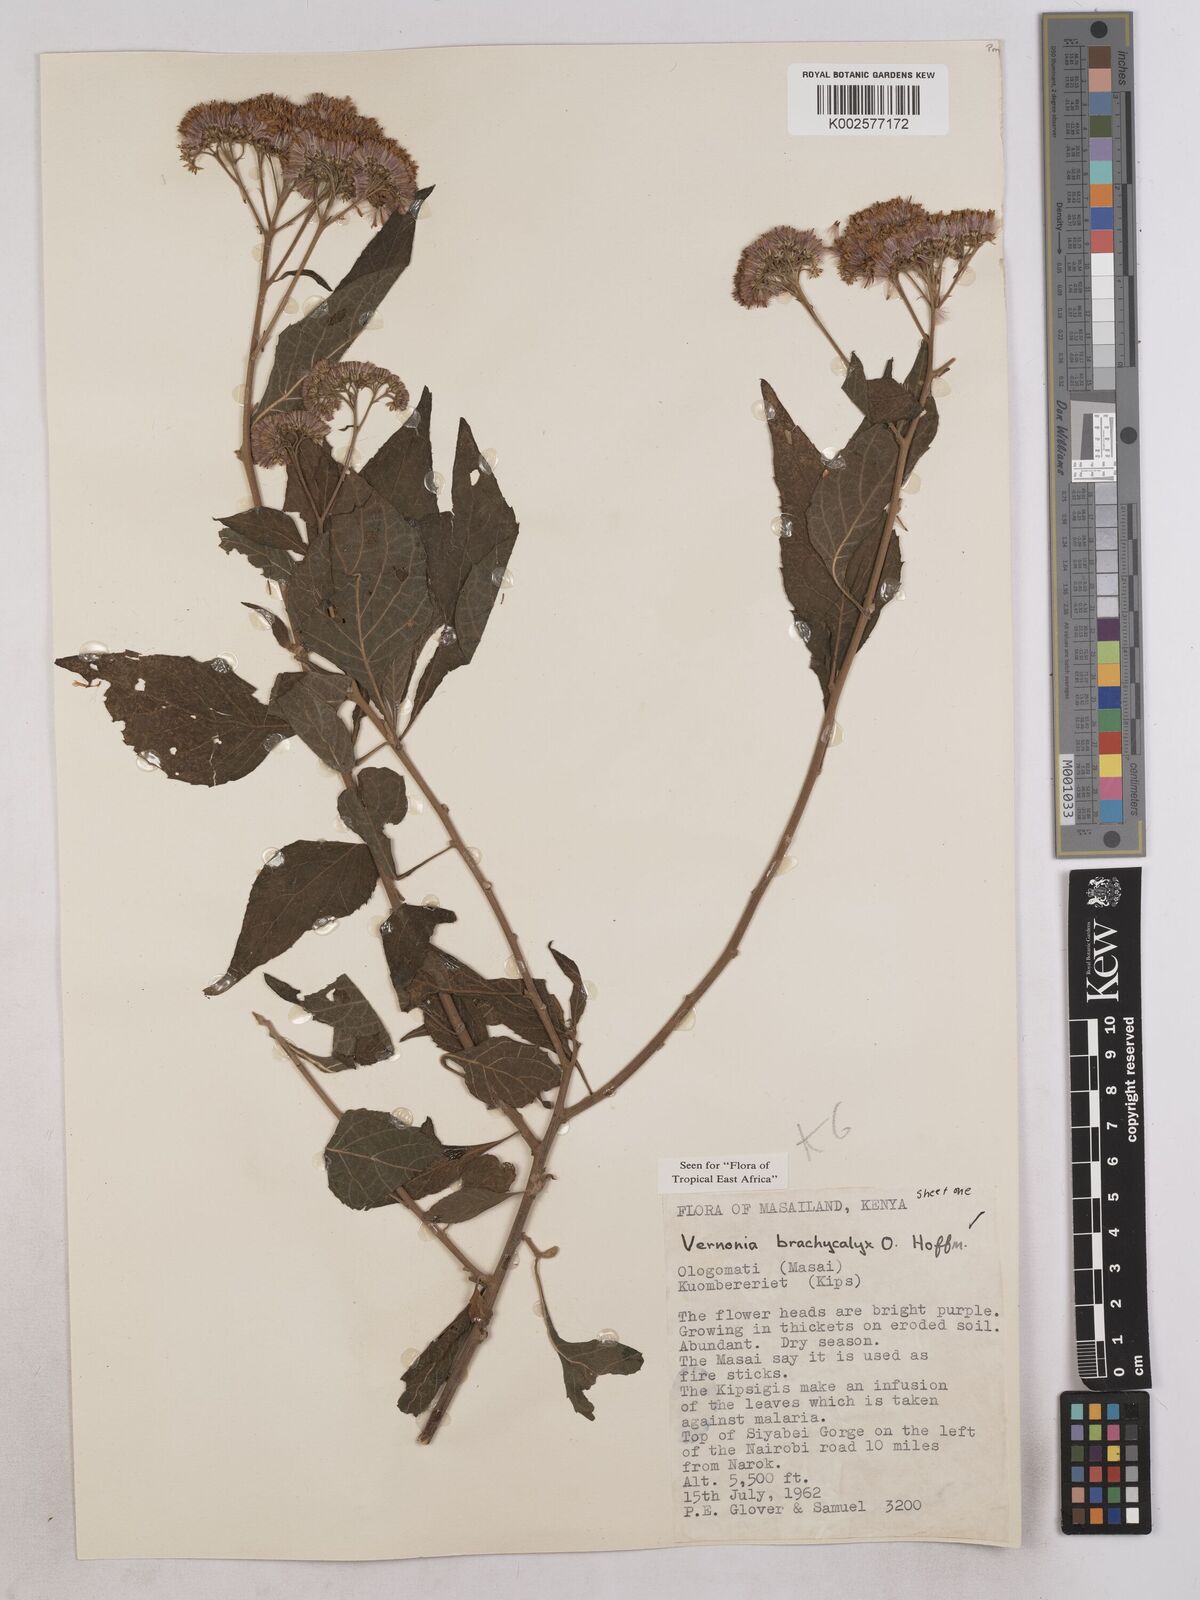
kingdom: Plantae
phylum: Tracheophyta
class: Magnoliopsida
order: Asterales
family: Asteraceae
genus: Hoffmannanthus
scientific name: Hoffmannanthus abbotianus
